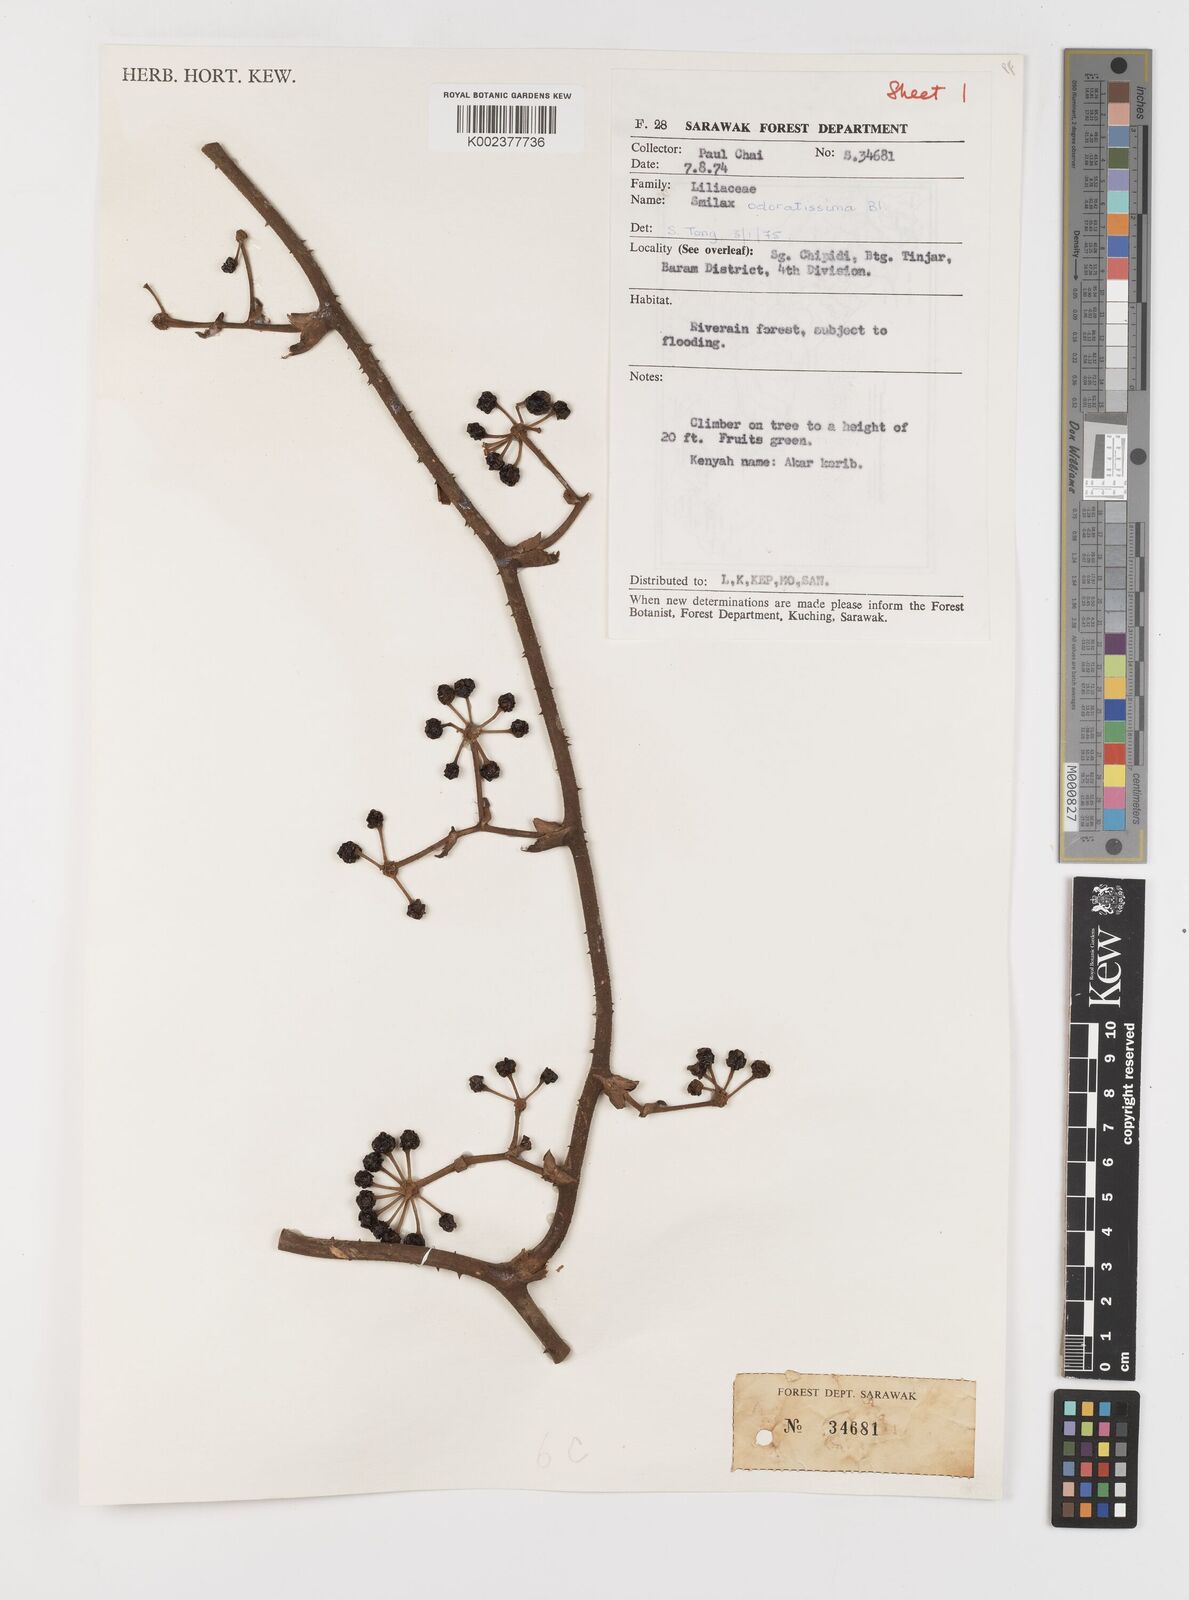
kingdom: Plantae
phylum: Tracheophyta
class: Liliopsida
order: Liliales
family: Smilacaceae
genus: Smilax
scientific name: Smilax odoratissima
